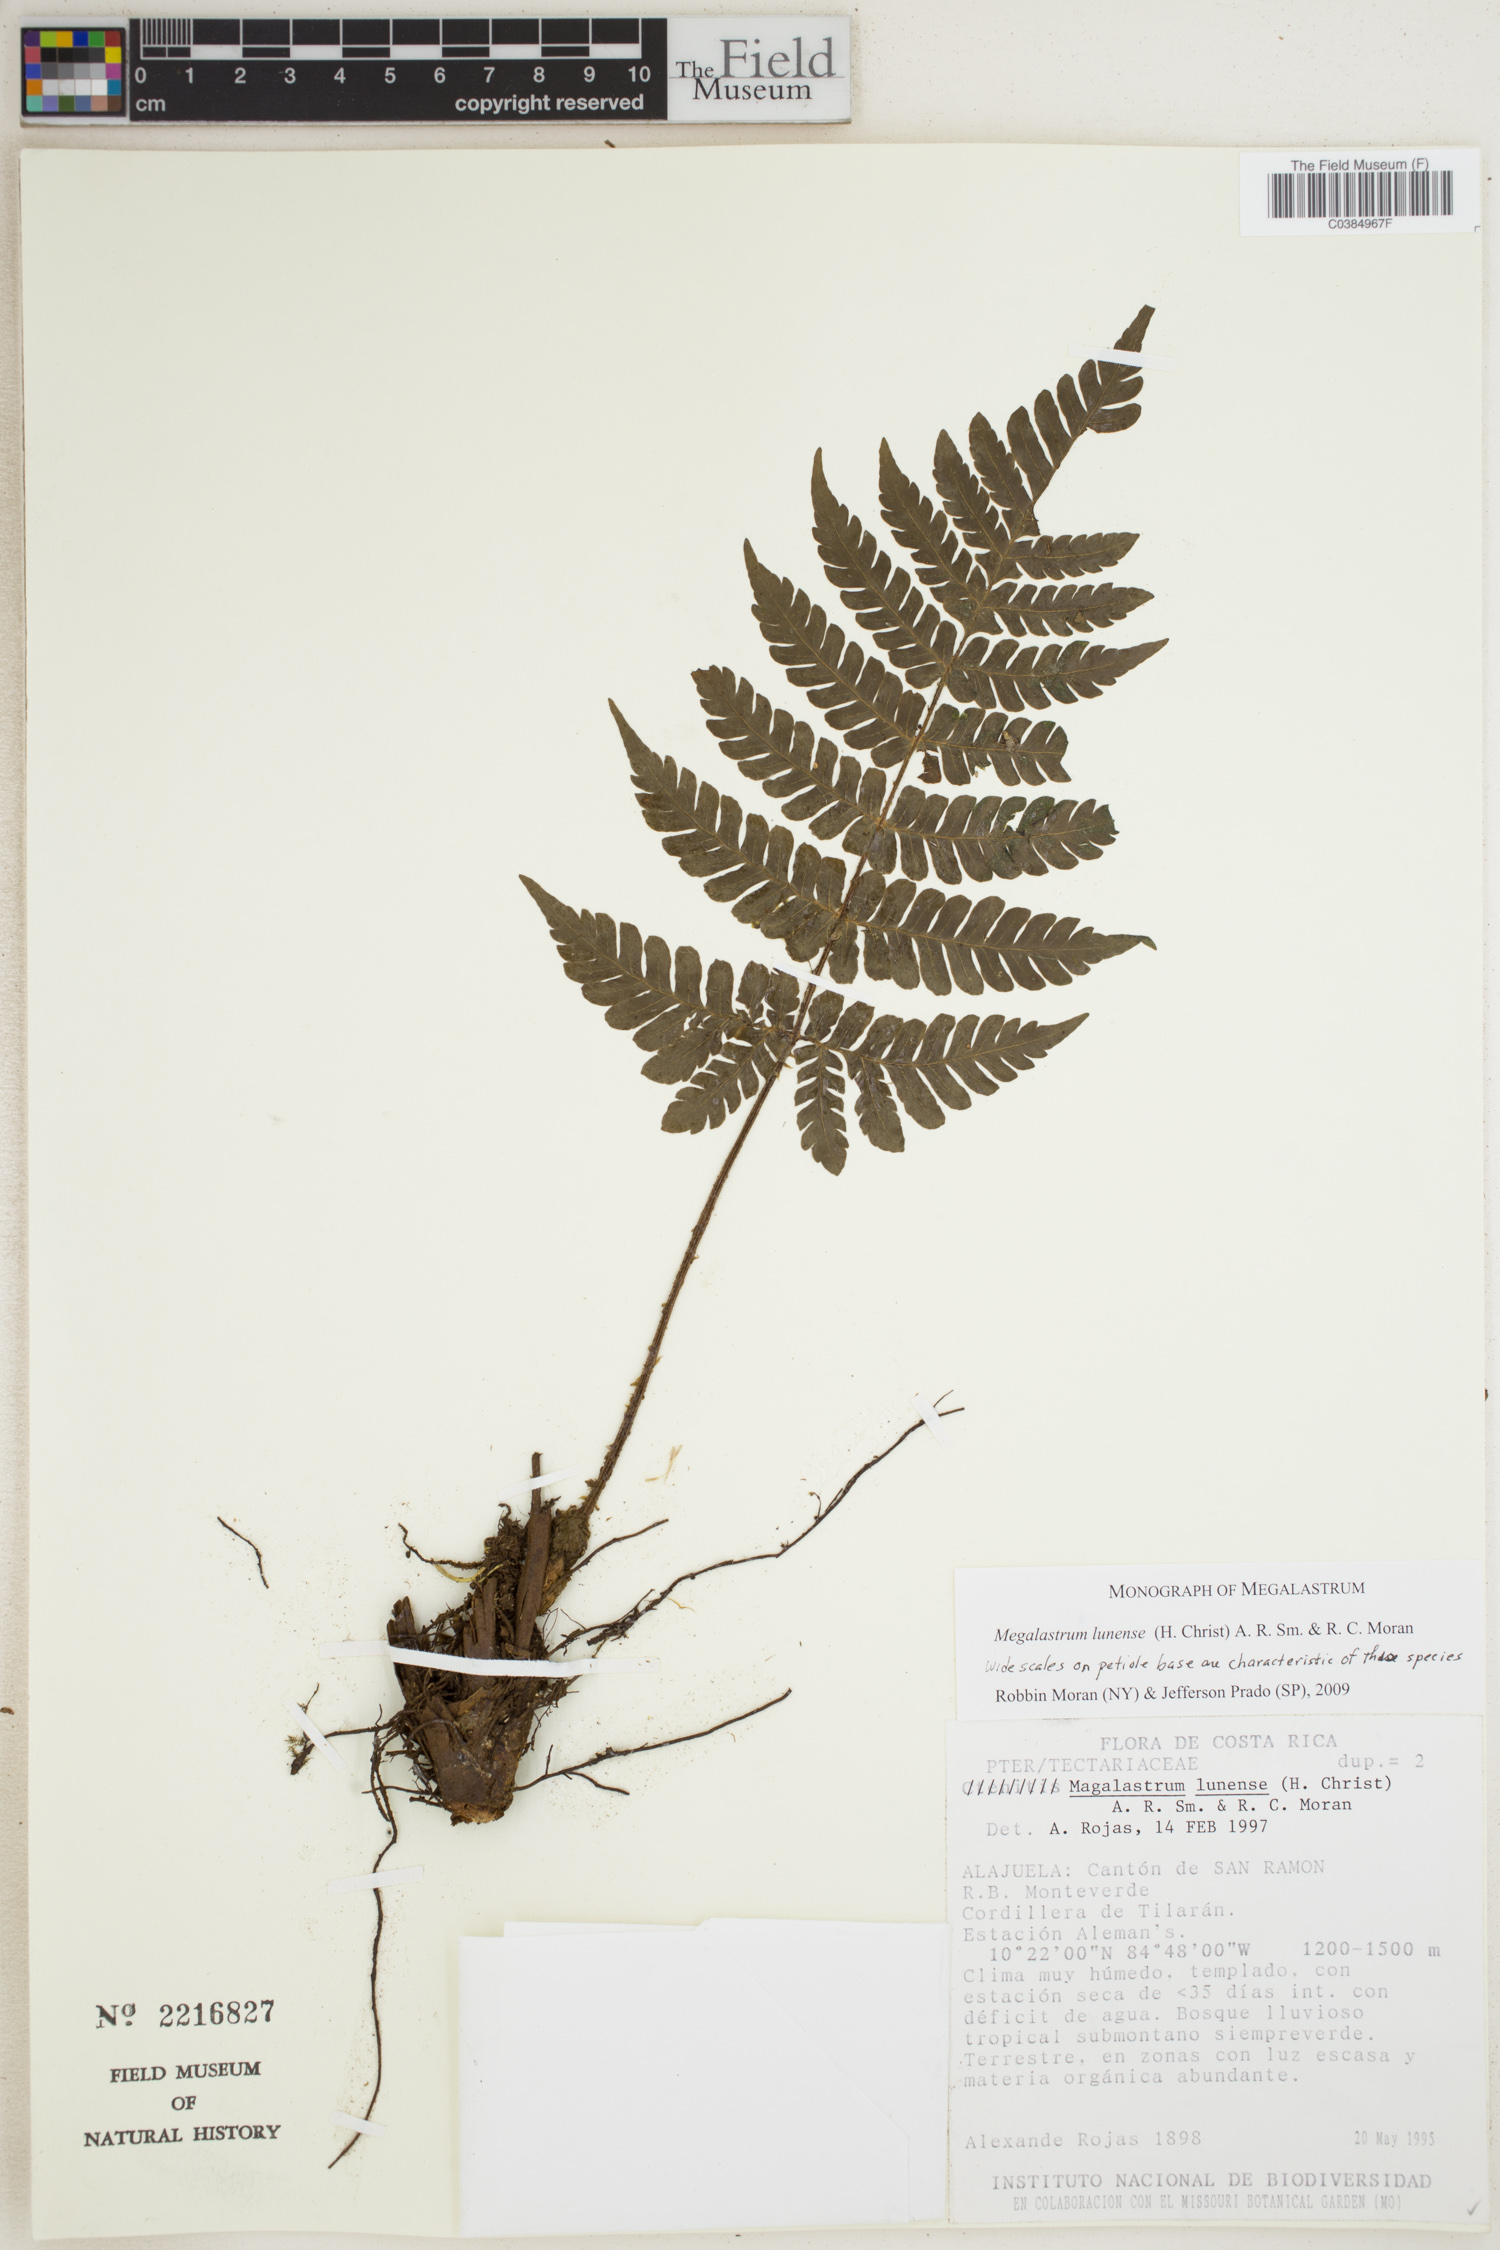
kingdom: Plantae
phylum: Tracheophyta
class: Polypodiopsida
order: Polypodiales
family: Dryopteridaceae
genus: Megalastrum
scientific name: Megalastrum lunense
